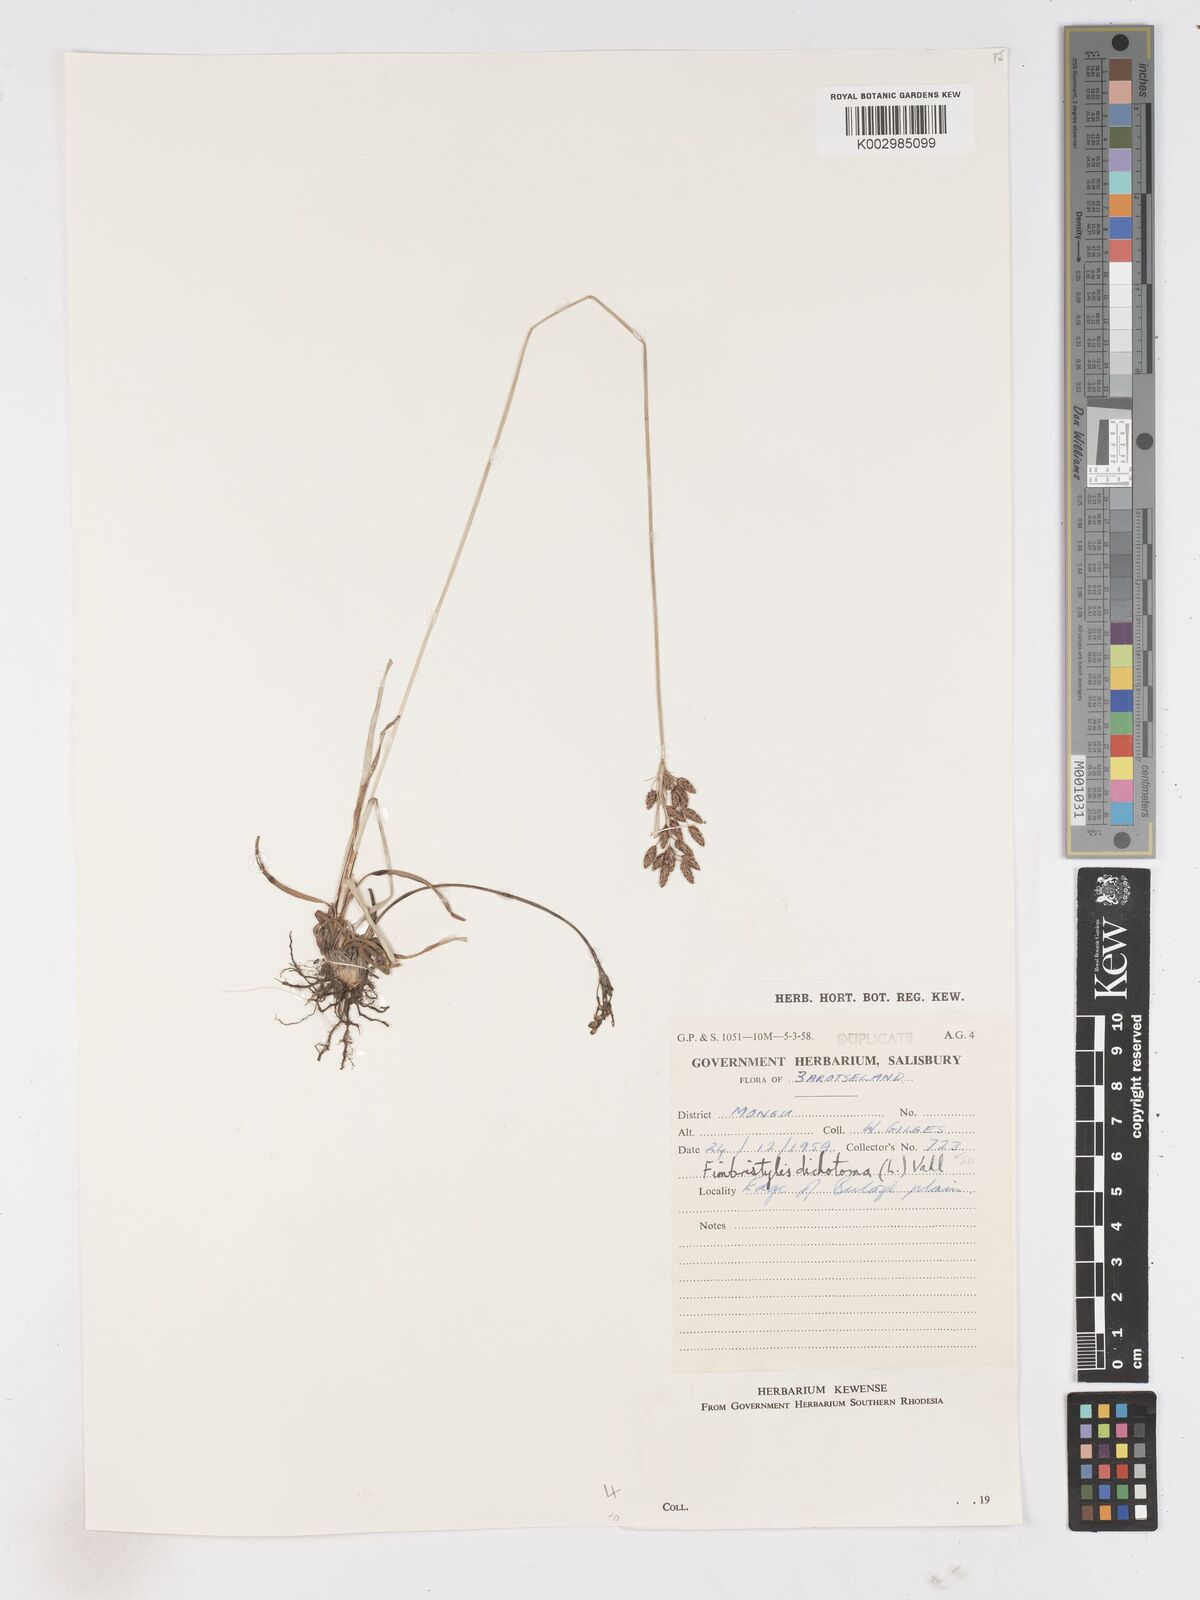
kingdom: Plantae
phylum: Tracheophyta
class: Liliopsida
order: Poales
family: Cyperaceae
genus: Fimbristylis
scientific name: Fimbristylis dichotoma
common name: Forked fimbry
